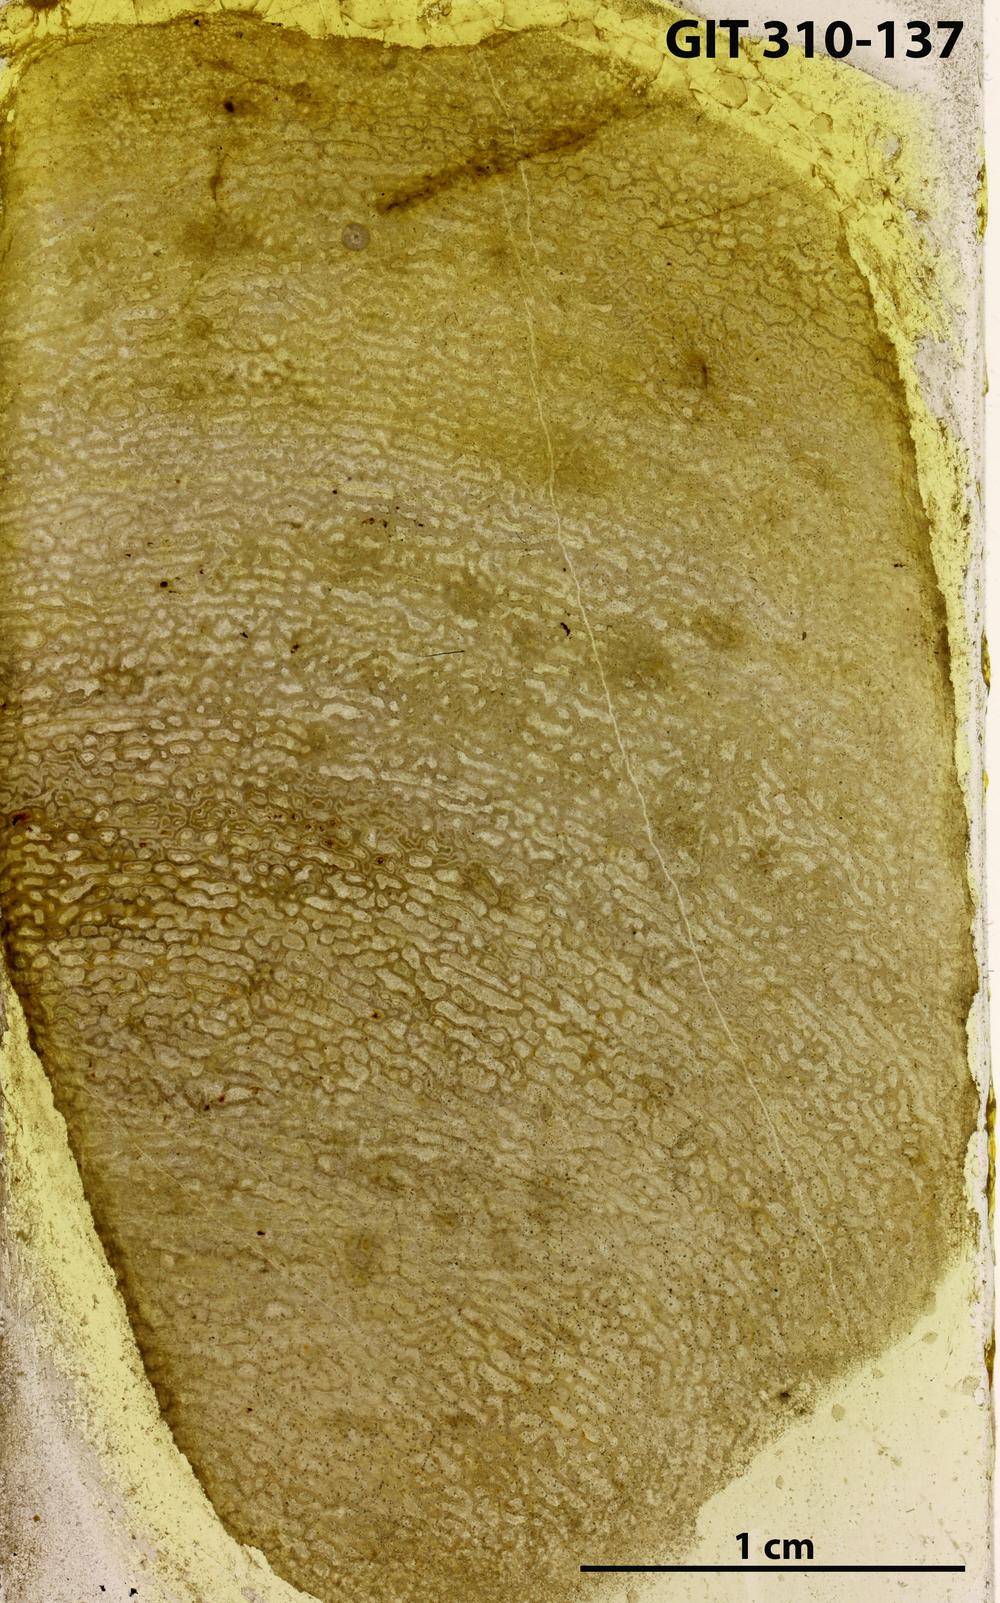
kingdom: Animalia
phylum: Porifera
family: Actinodictyidae
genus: Camptodictyon
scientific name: Camptodictyon
